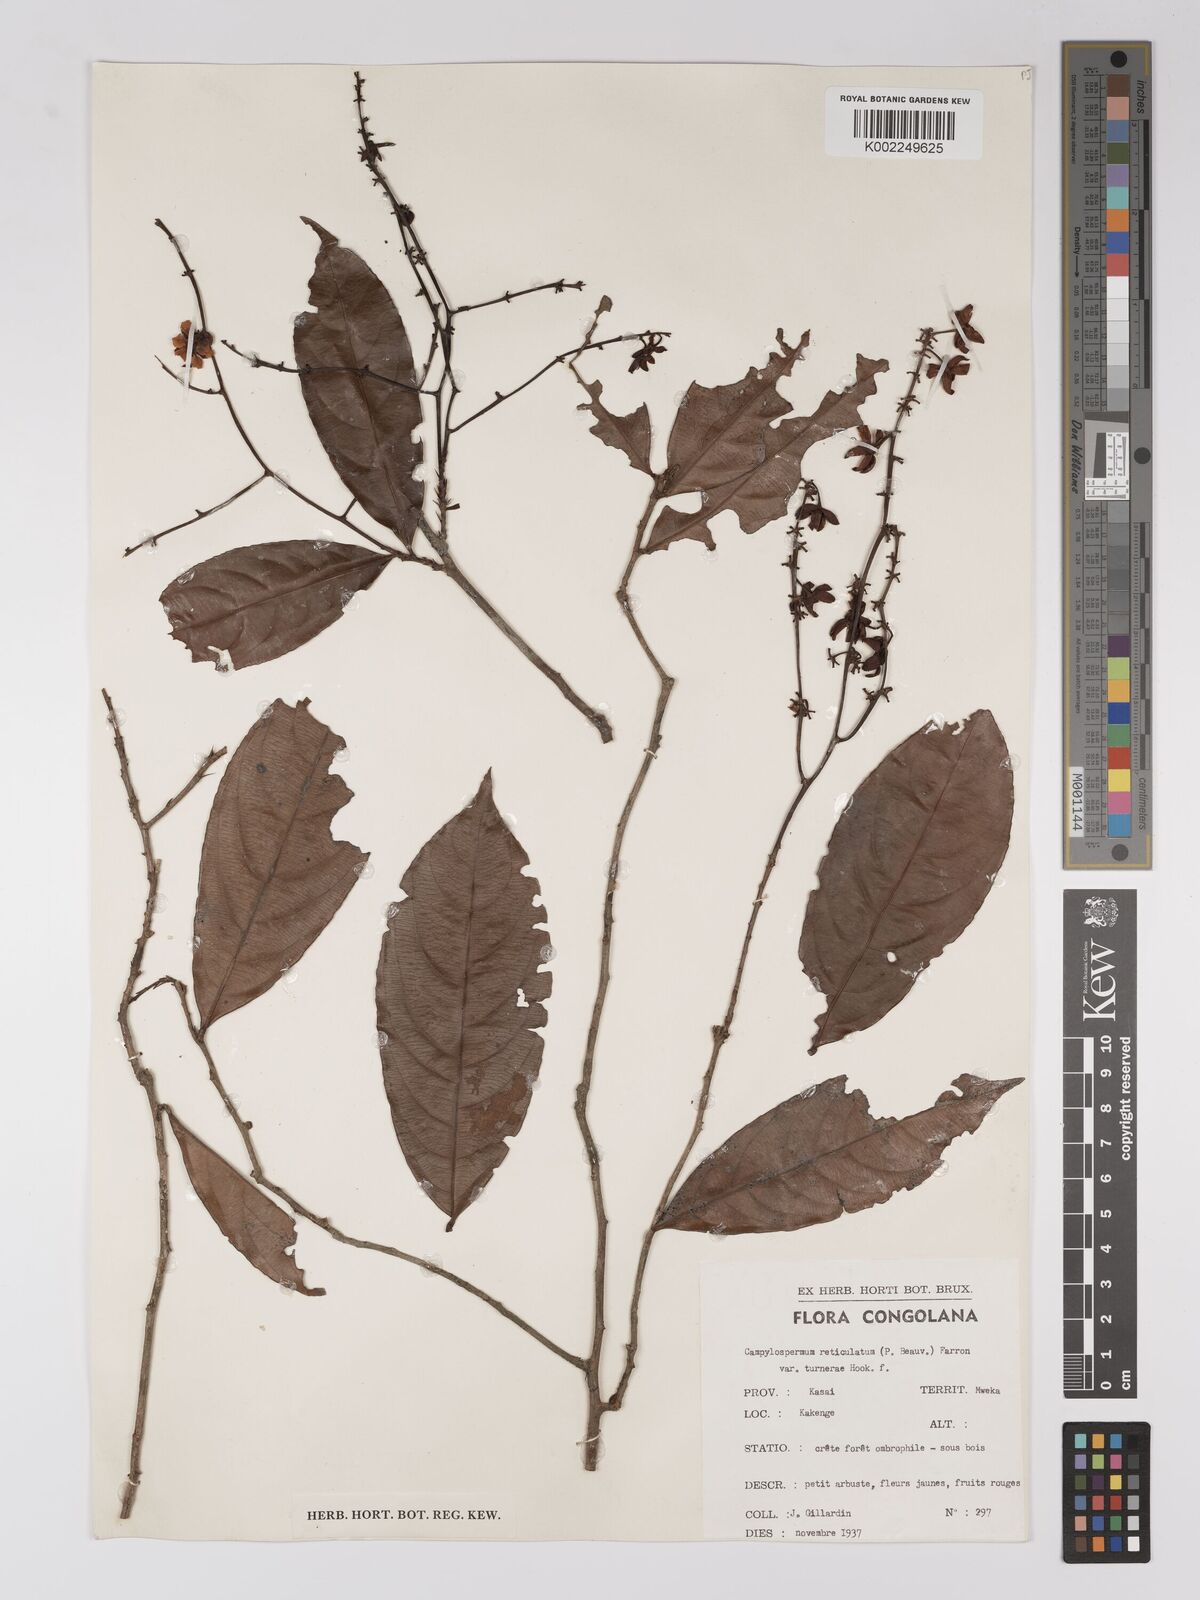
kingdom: Plantae
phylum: Tracheophyta
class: Magnoliopsida
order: Malpighiales
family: Ochnaceae
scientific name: Ochnaceae
